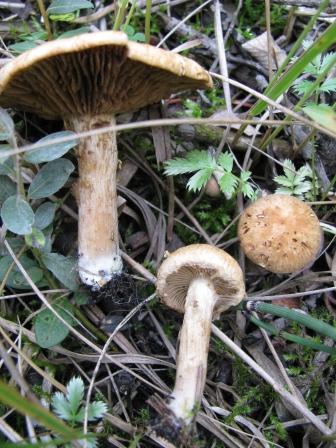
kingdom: Fungi
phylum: Basidiomycota
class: Agaricomycetes
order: Agaricales
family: Inocybaceae
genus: Mallocybe
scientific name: Mallocybe agardhii
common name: Agardhs trævlhat
